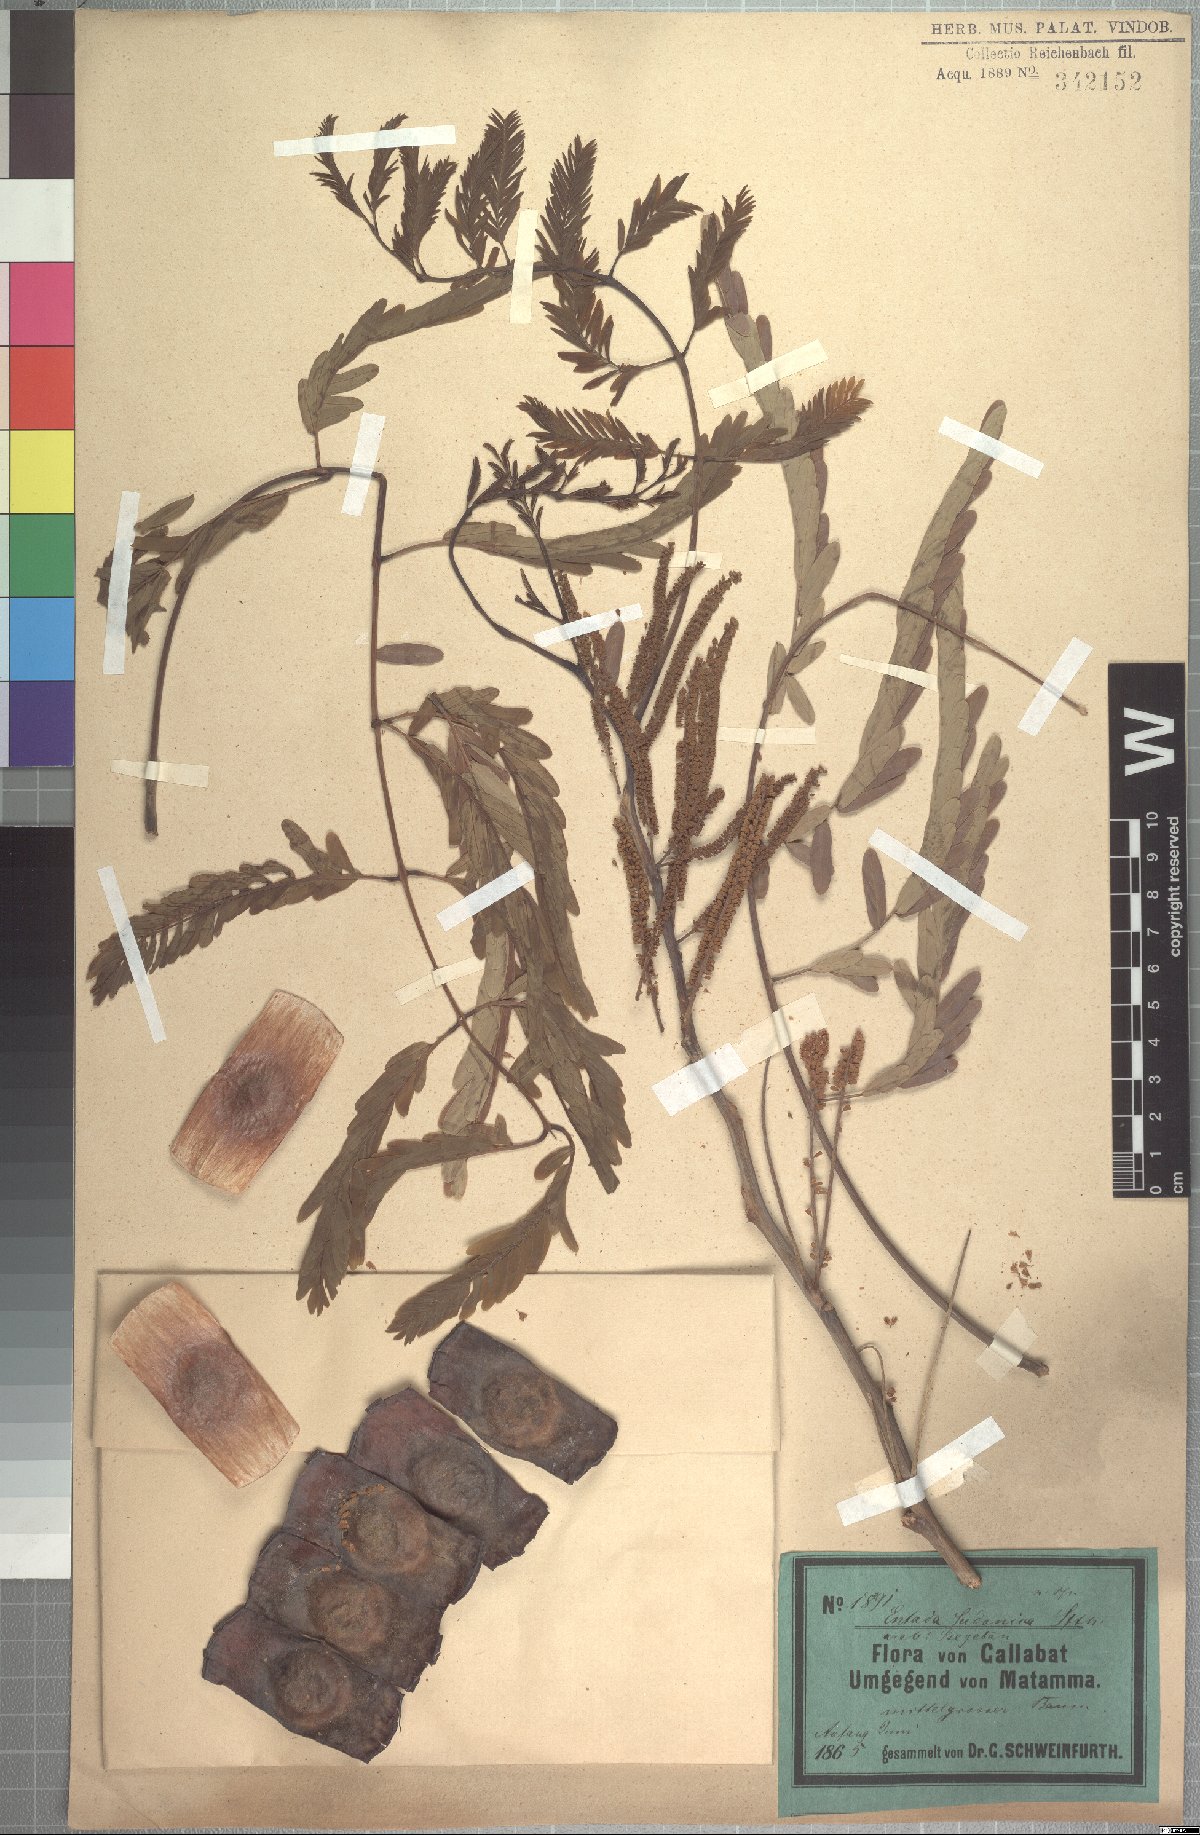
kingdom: Plantae
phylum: Tracheophyta
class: Magnoliopsida
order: Fabales
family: Fabaceae
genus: Entada
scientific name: Entada africana
